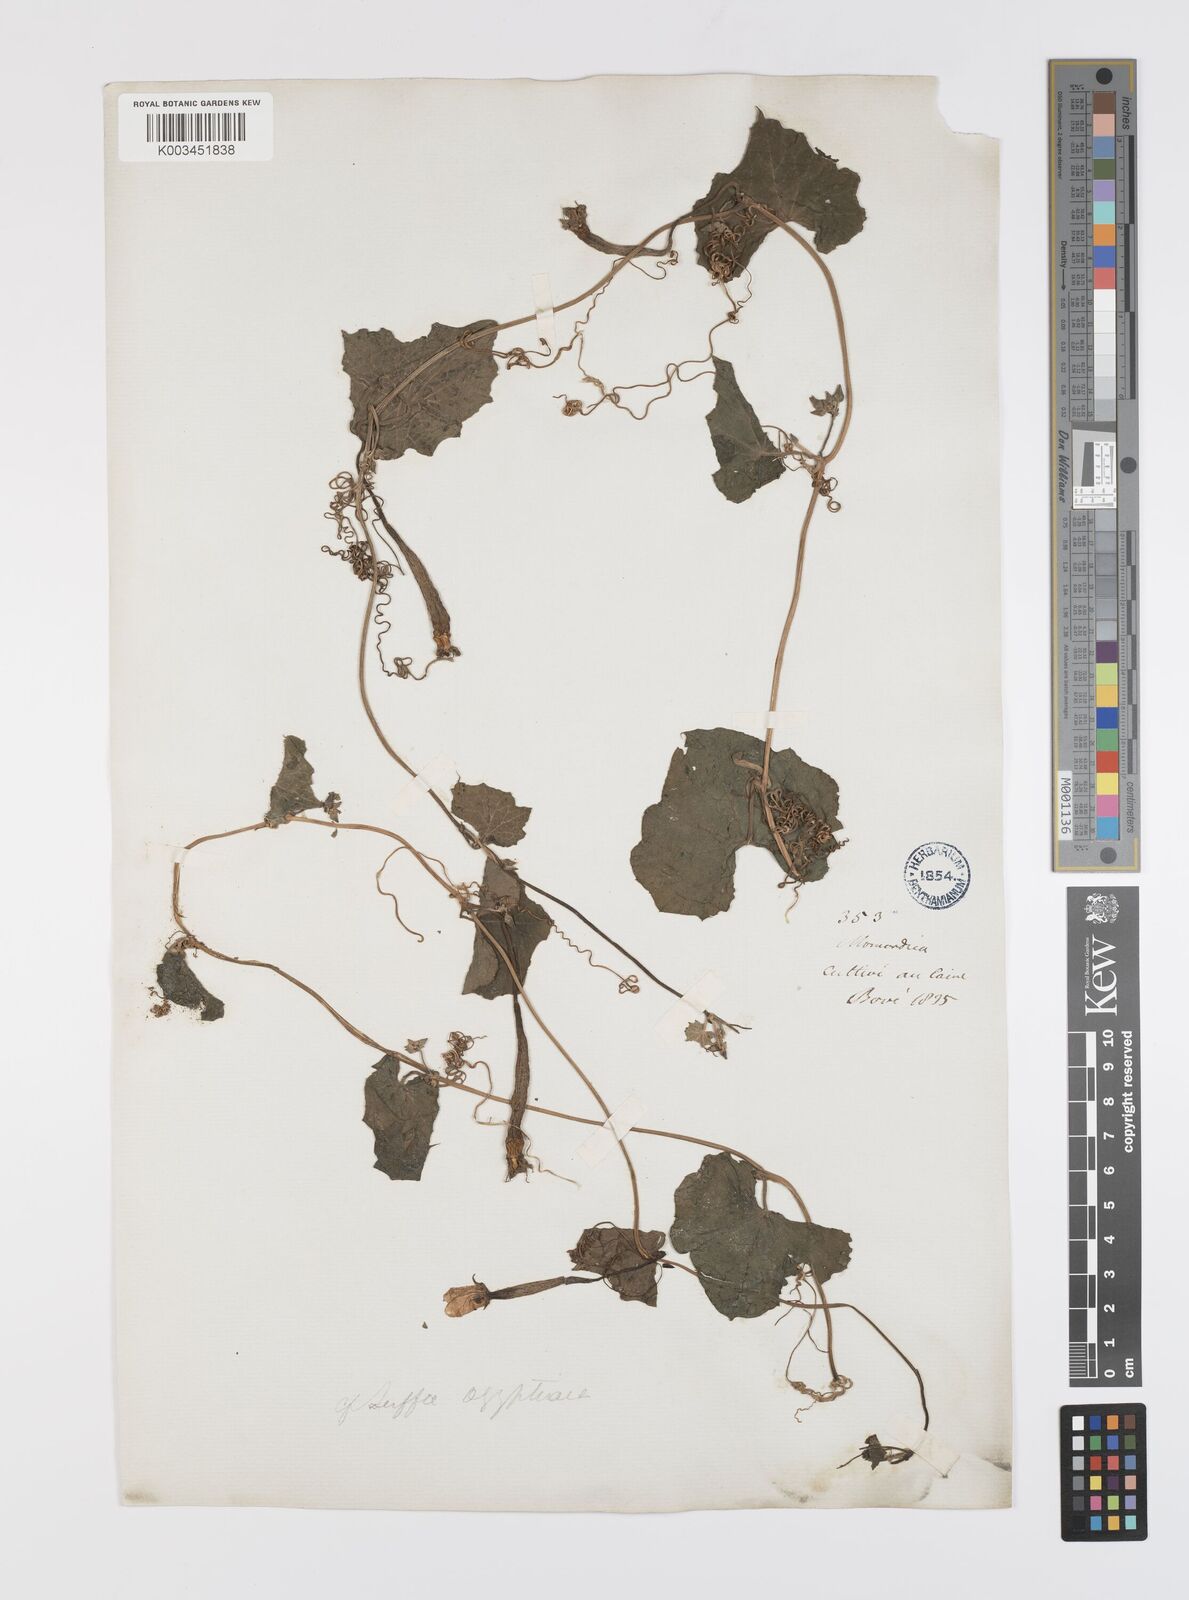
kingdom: Plantae
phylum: Tracheophyta
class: Magnoliopsida
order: Cucurbitales
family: Cucurbitaceae
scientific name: Cucurbitaceae
